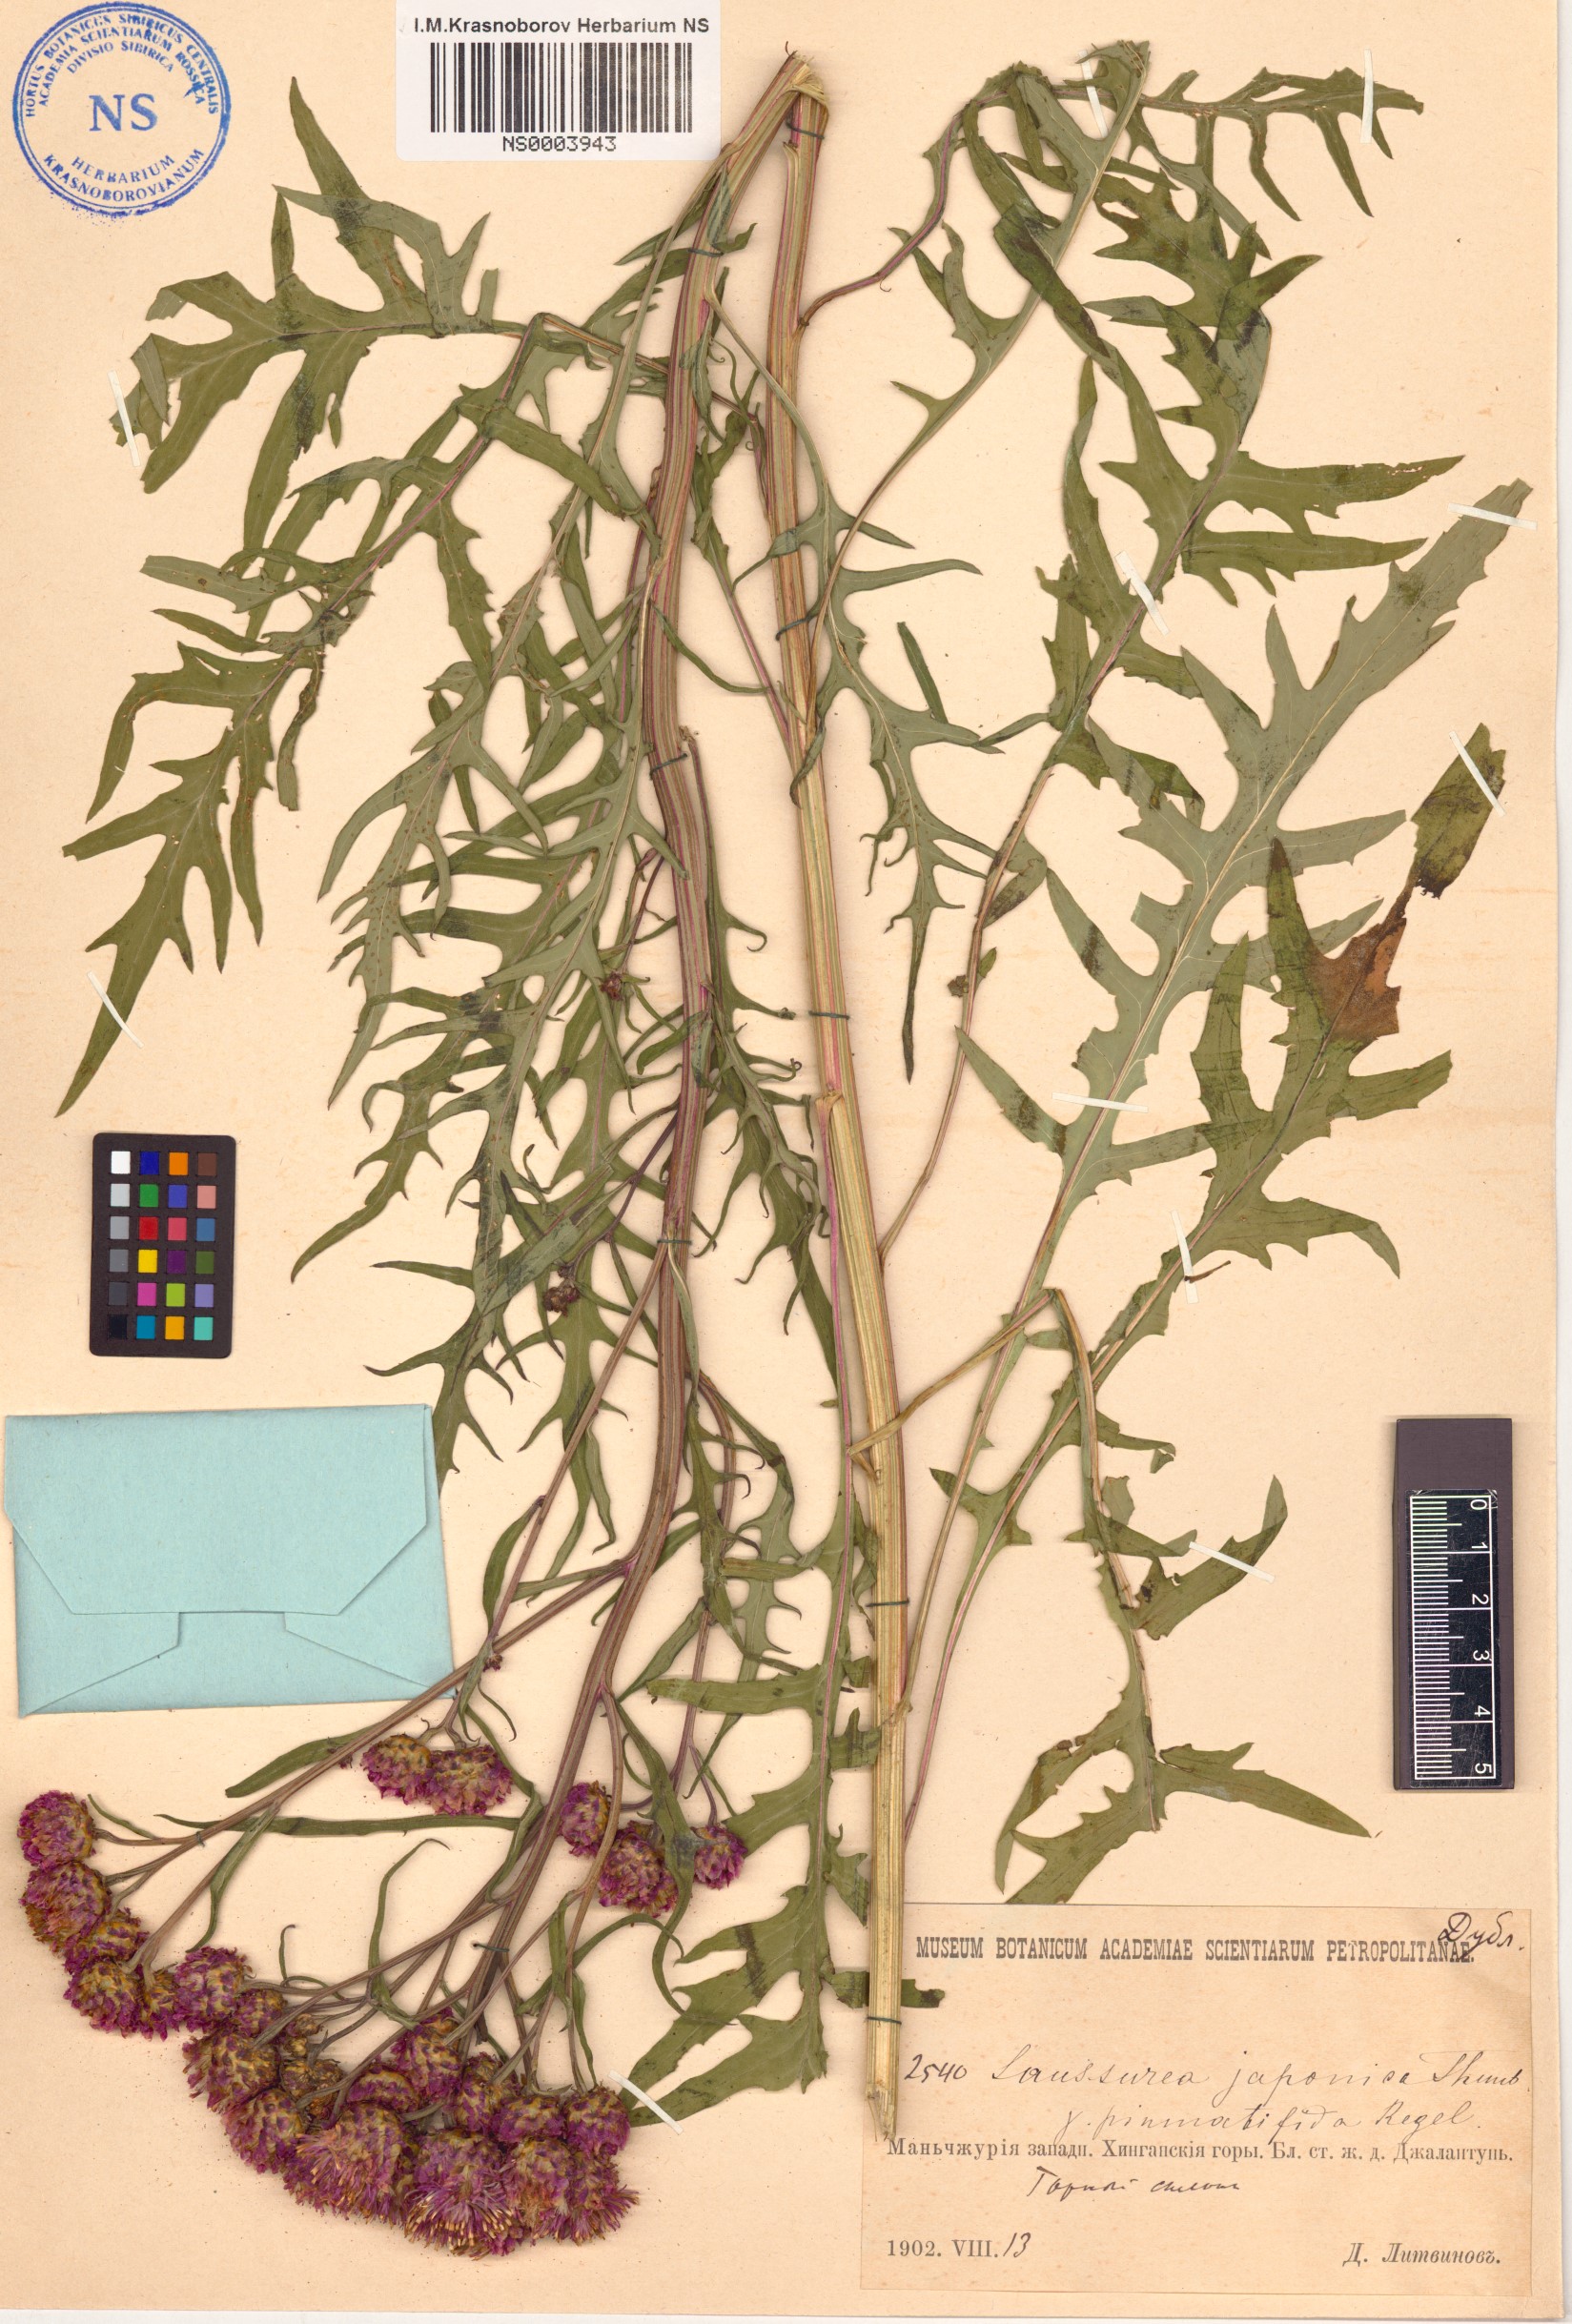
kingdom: Plantae
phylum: Tracheophyta
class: Magnoliopsida
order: Asterales
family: Asteraceae
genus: Saussurea
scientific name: Saussurea japonica
